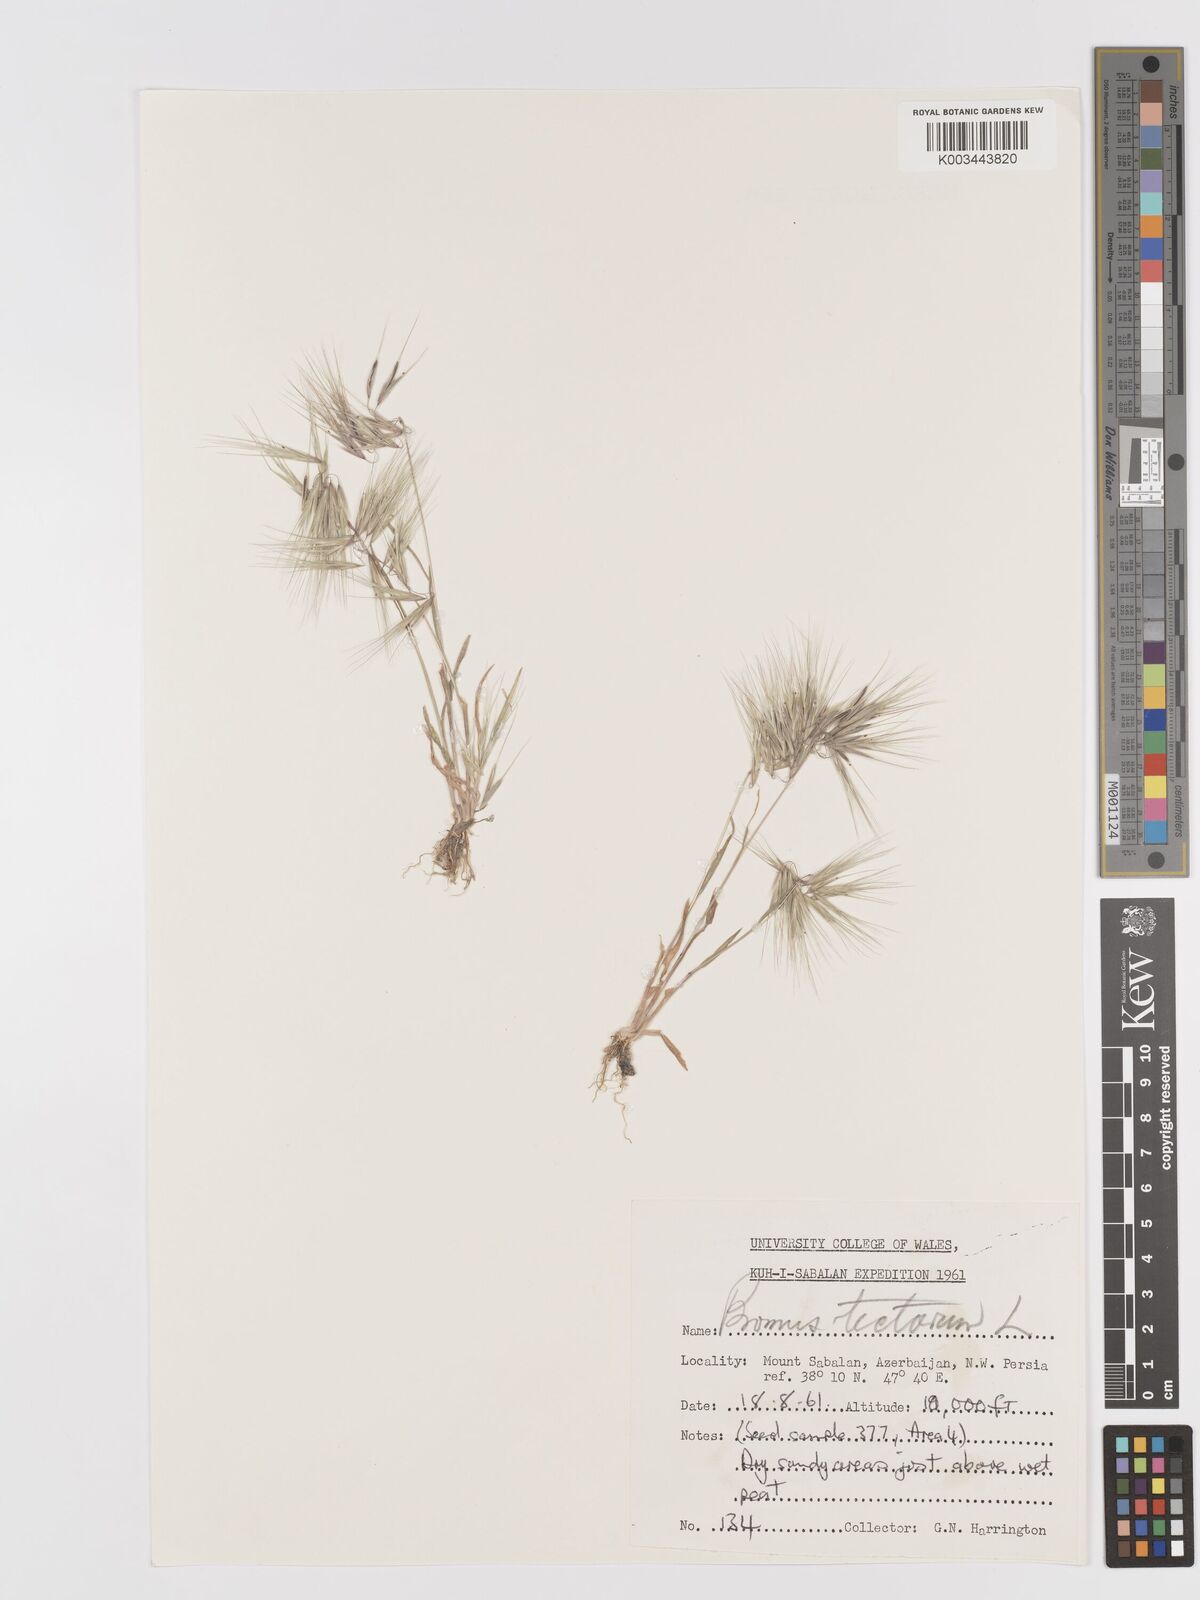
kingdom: Plantae
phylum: Tracheophyta
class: Liliopsida
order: Poales
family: Poaceae
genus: Bromus
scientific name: Bromus tectorum
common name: Cheatgrass
